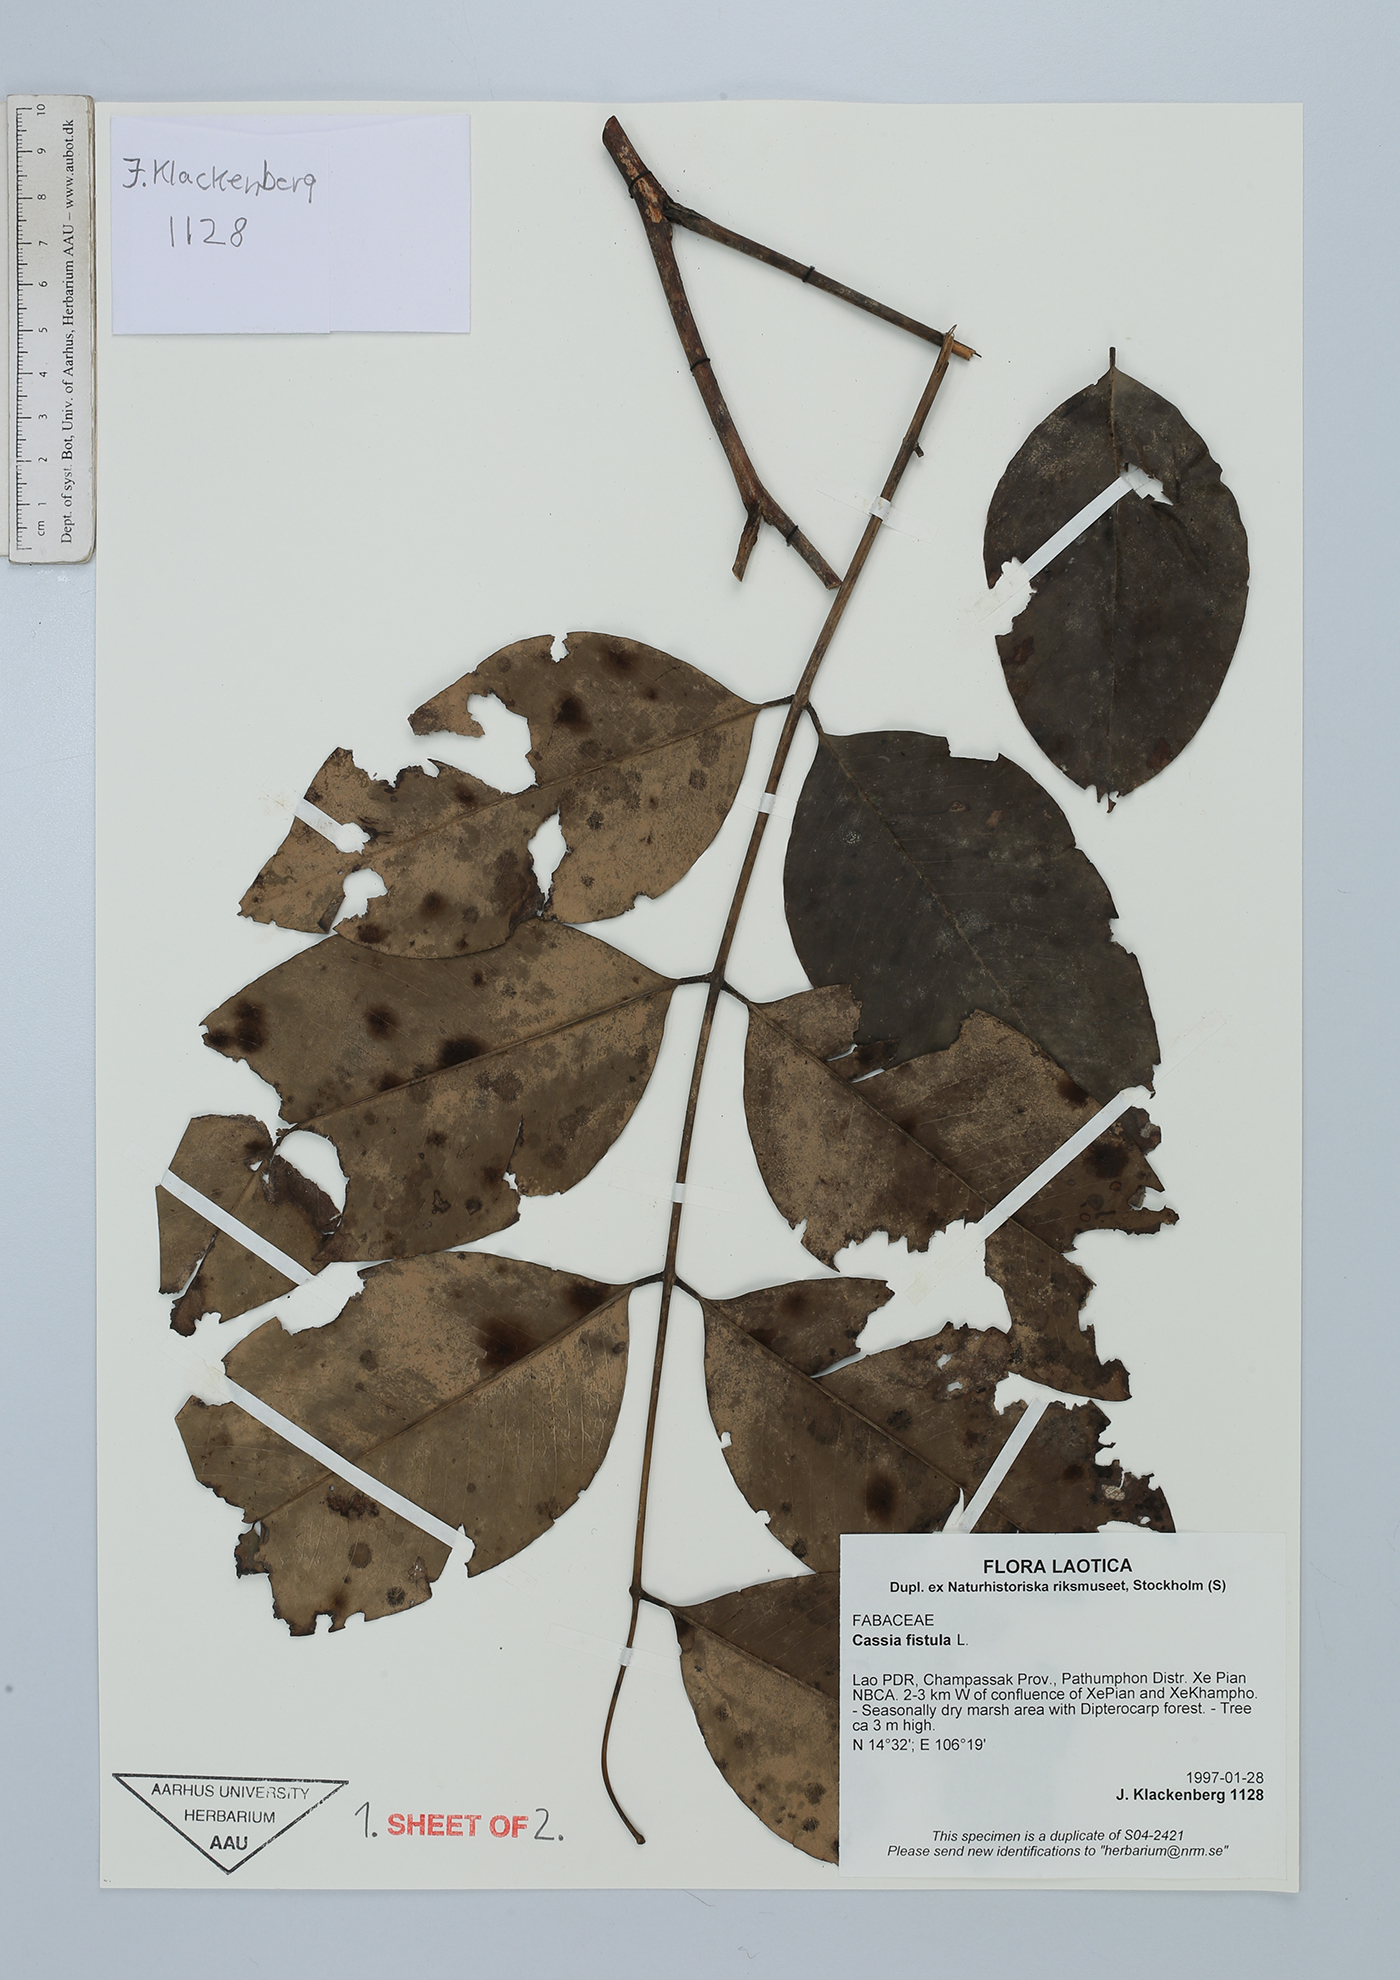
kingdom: Plantae
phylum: Tracheophyta
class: Magnoliopsida
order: Fabales
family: Fabaceae
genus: Cassia
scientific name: Cassia fistula
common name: Golden shower
